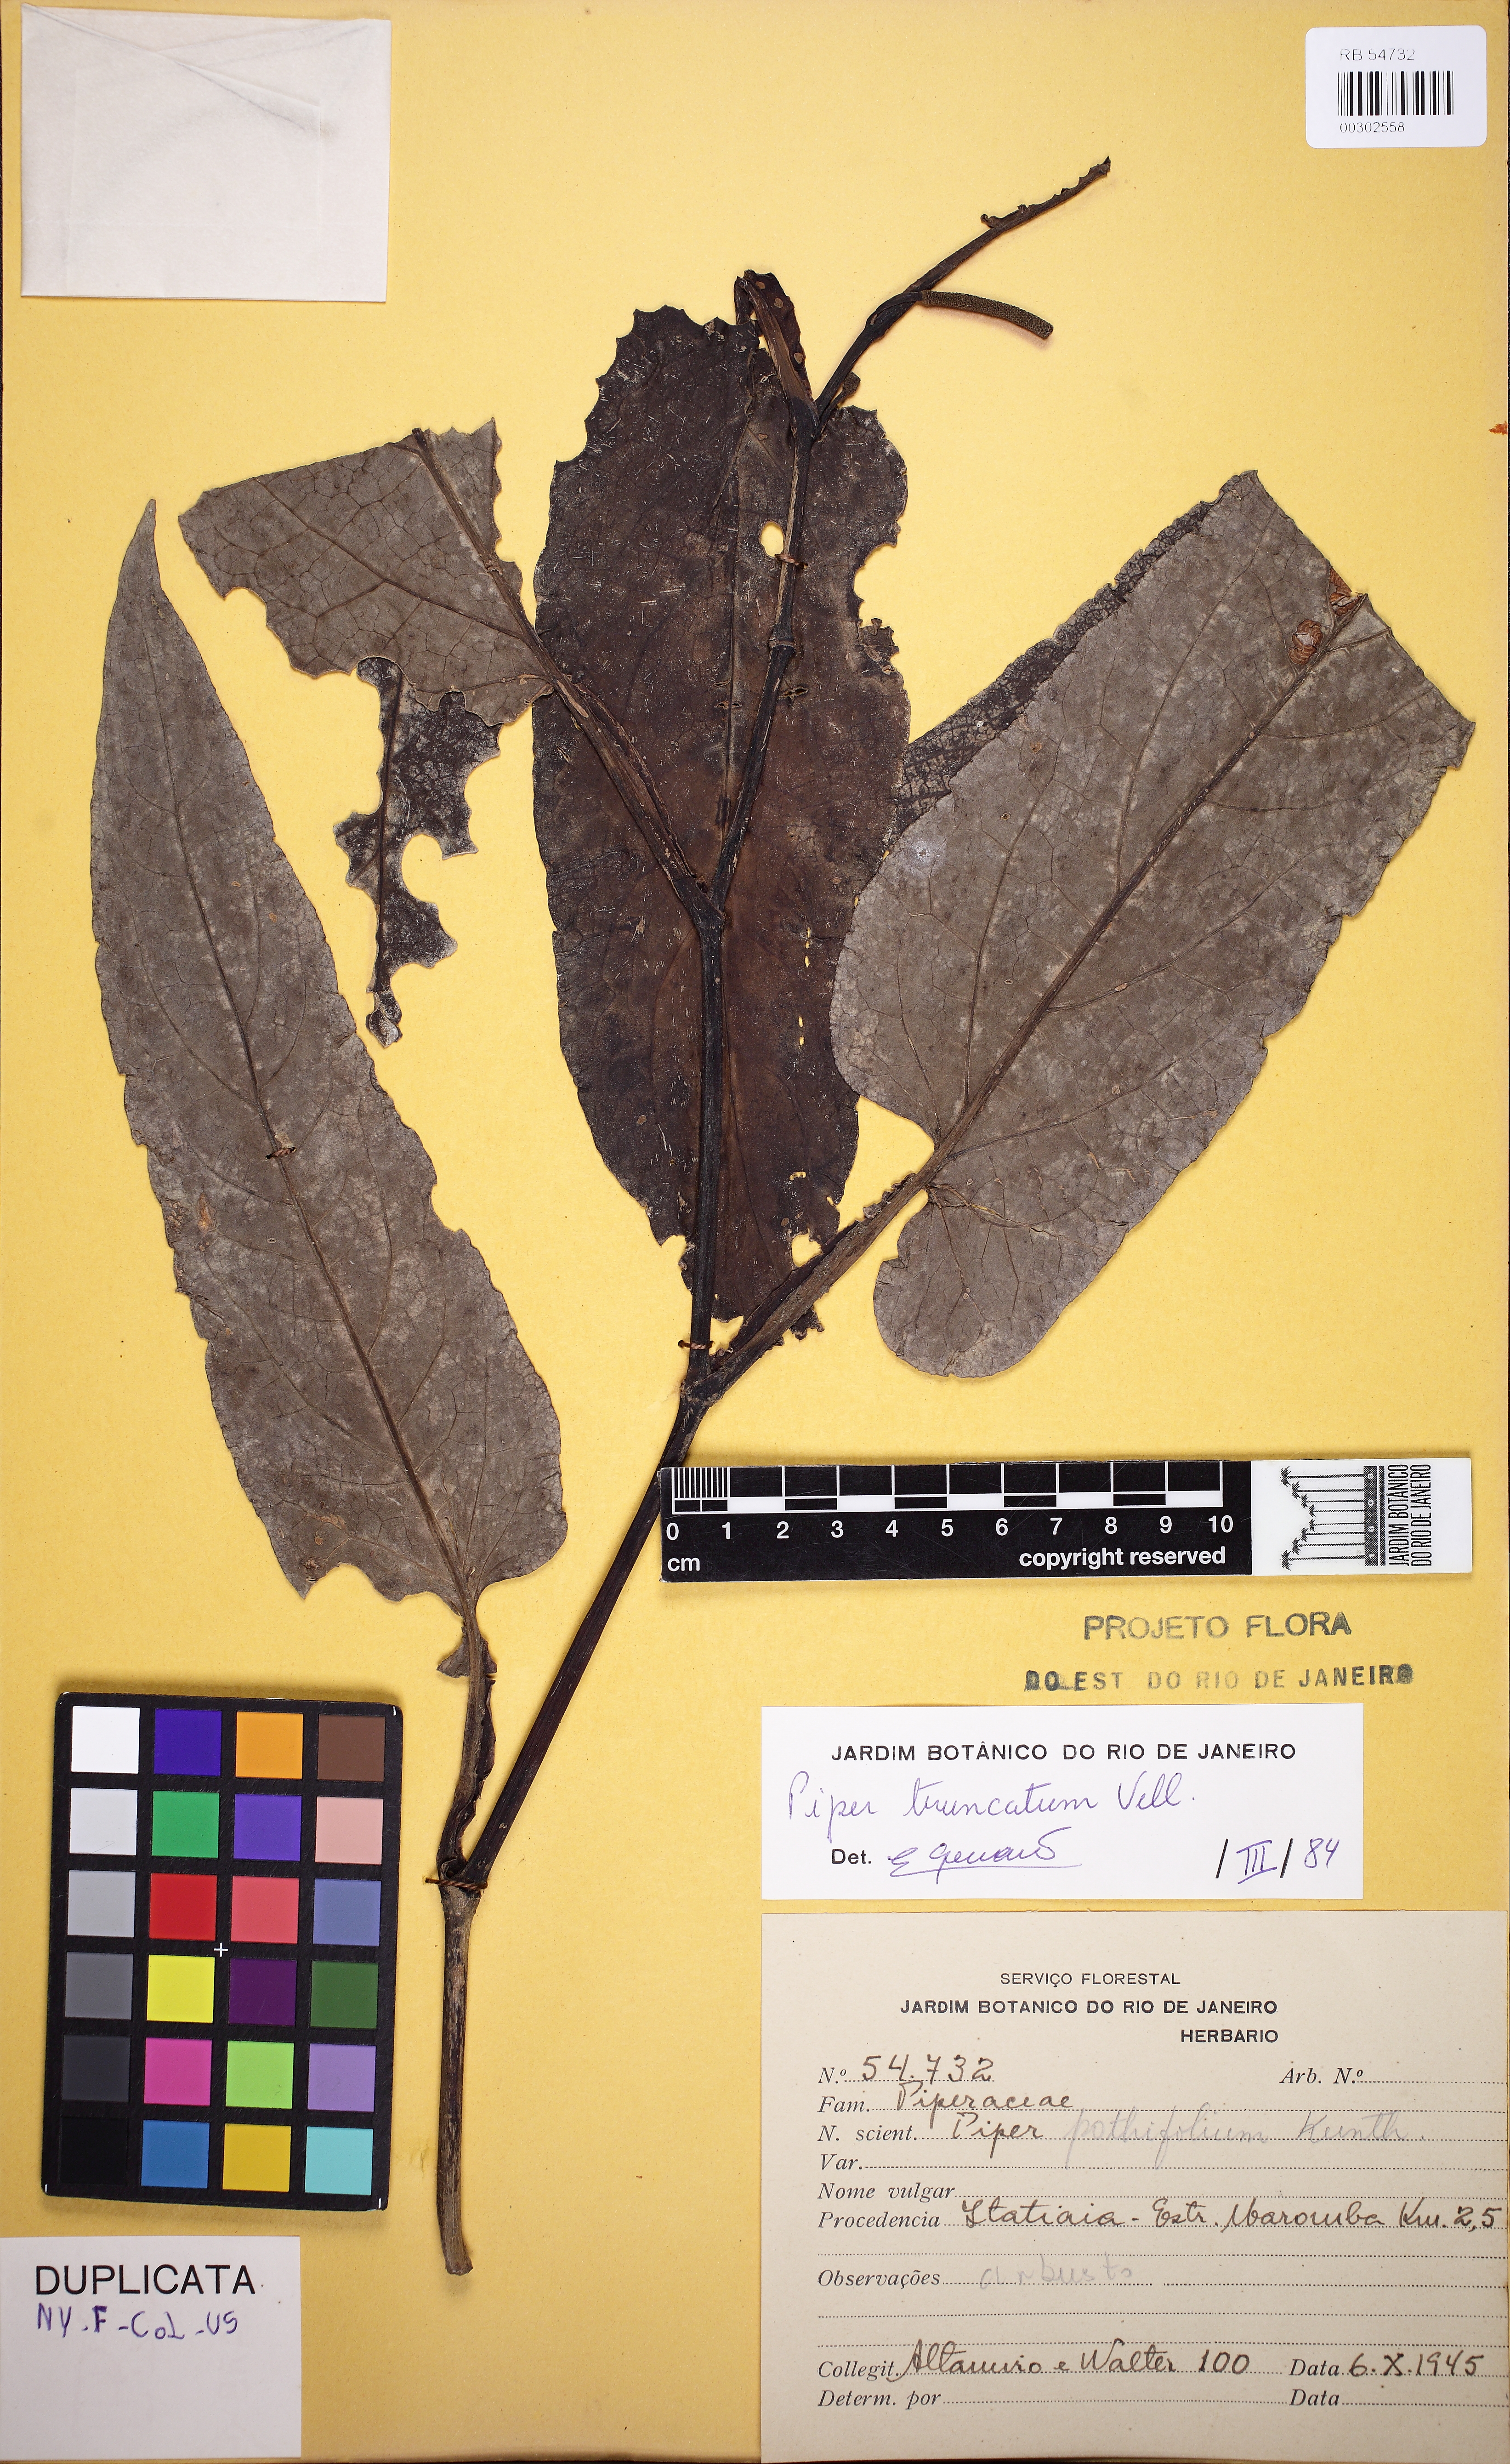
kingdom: Plantae
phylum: Tracheophyta
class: Magnoliopsida
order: Piperales
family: Piperaceae
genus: Piper
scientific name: Piper truncatum
